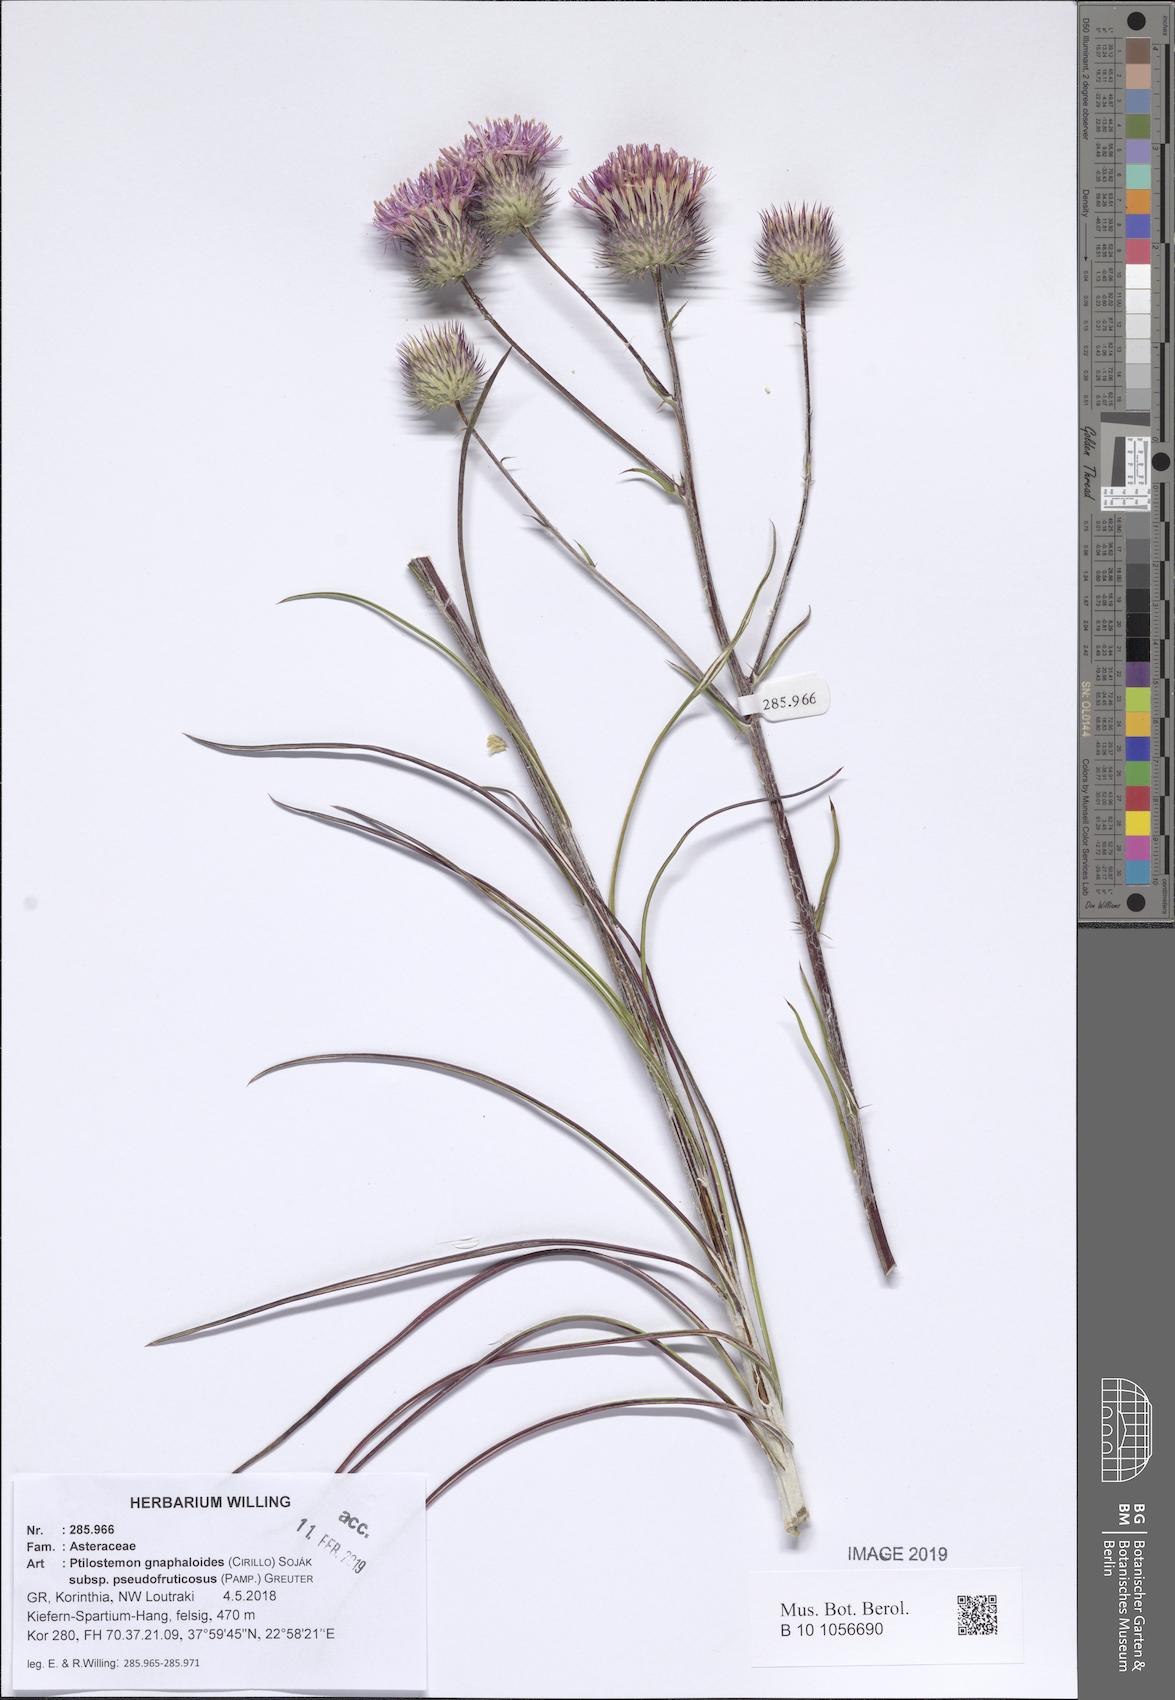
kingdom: Plantae
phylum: Tracheophyta
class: Magnoliopsida
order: Asterales
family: Asteraceae
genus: Ptilostemon
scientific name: Ptilostemon gnaphaloides
